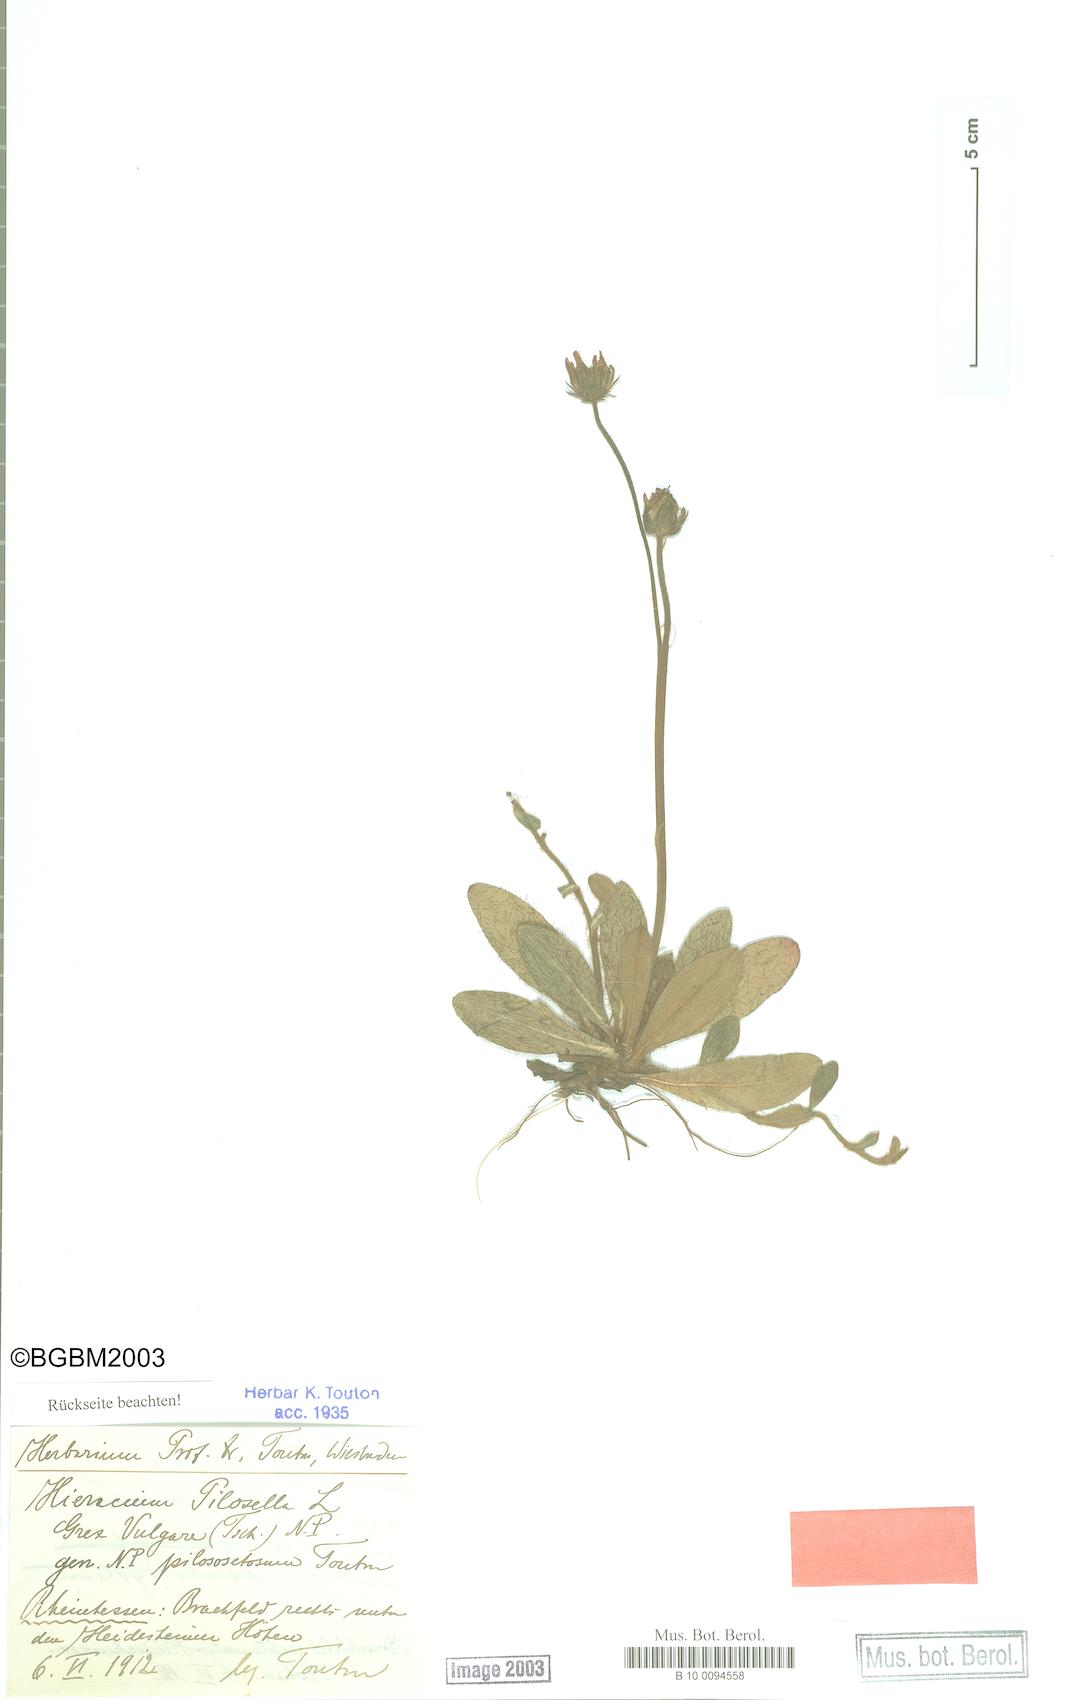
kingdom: Plantae
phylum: Tracheophyta
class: Magnoliopsida
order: Asterales
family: Asteraceae
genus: Pilosella
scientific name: Pilosella officinarum
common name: Mouse-ear hawkweed
